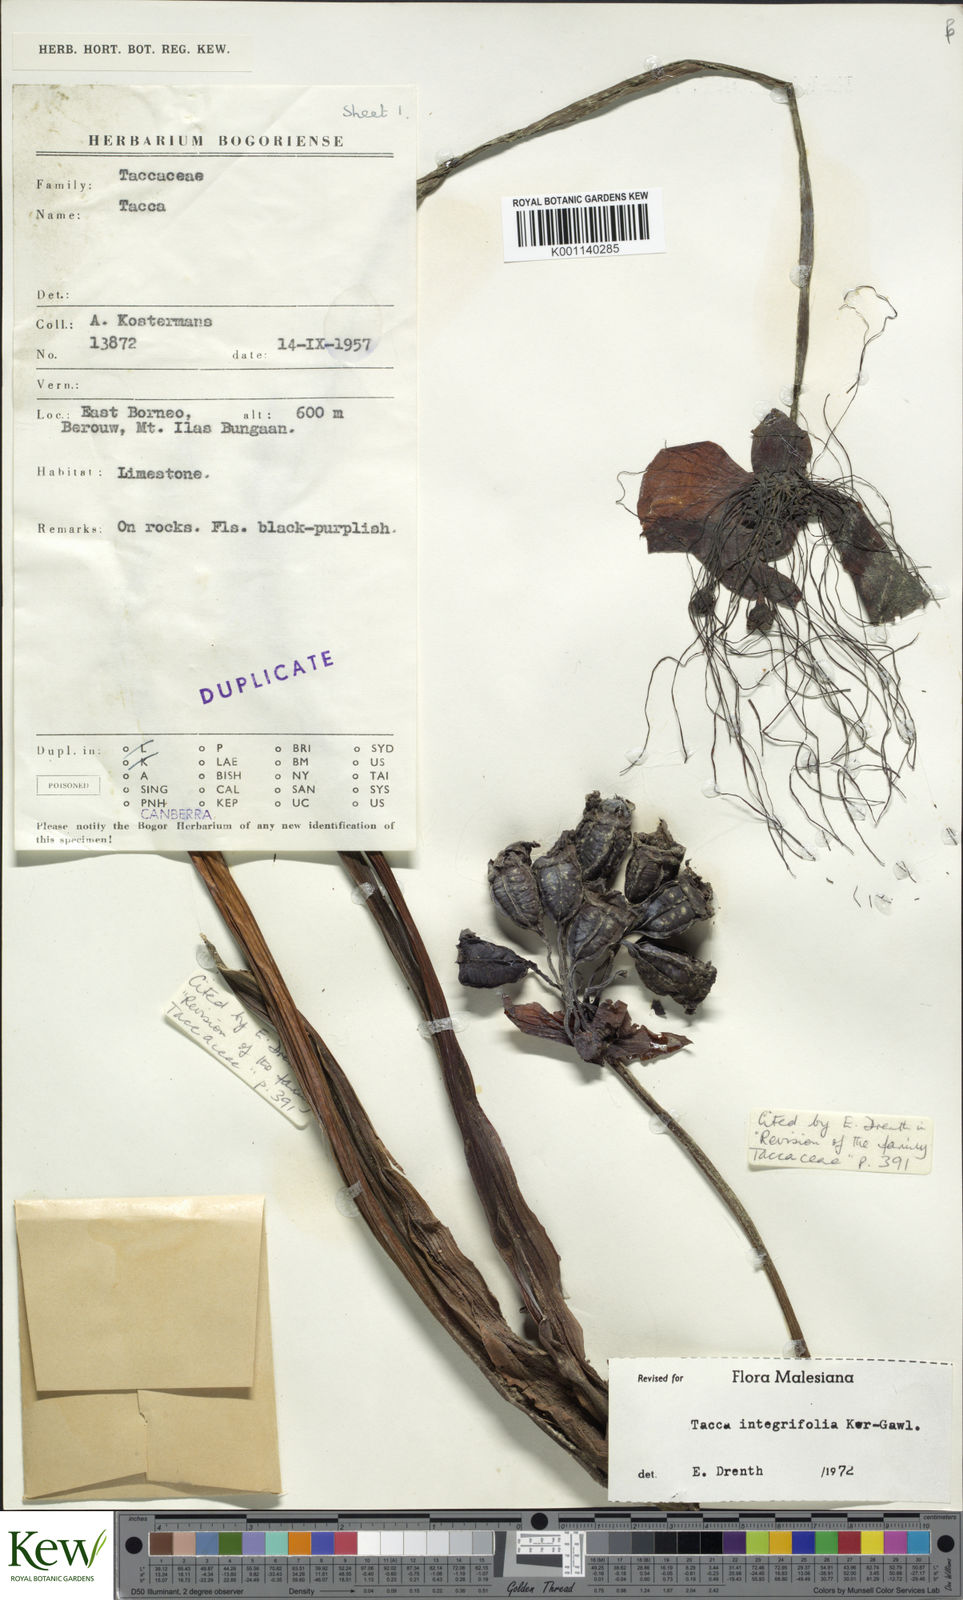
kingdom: Plantae
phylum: Tracheophyta
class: Liliopsida
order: Dioscoreales
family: Dioscoreaceae
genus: Tacca
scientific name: Tacca integrifolia
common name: Batplant
